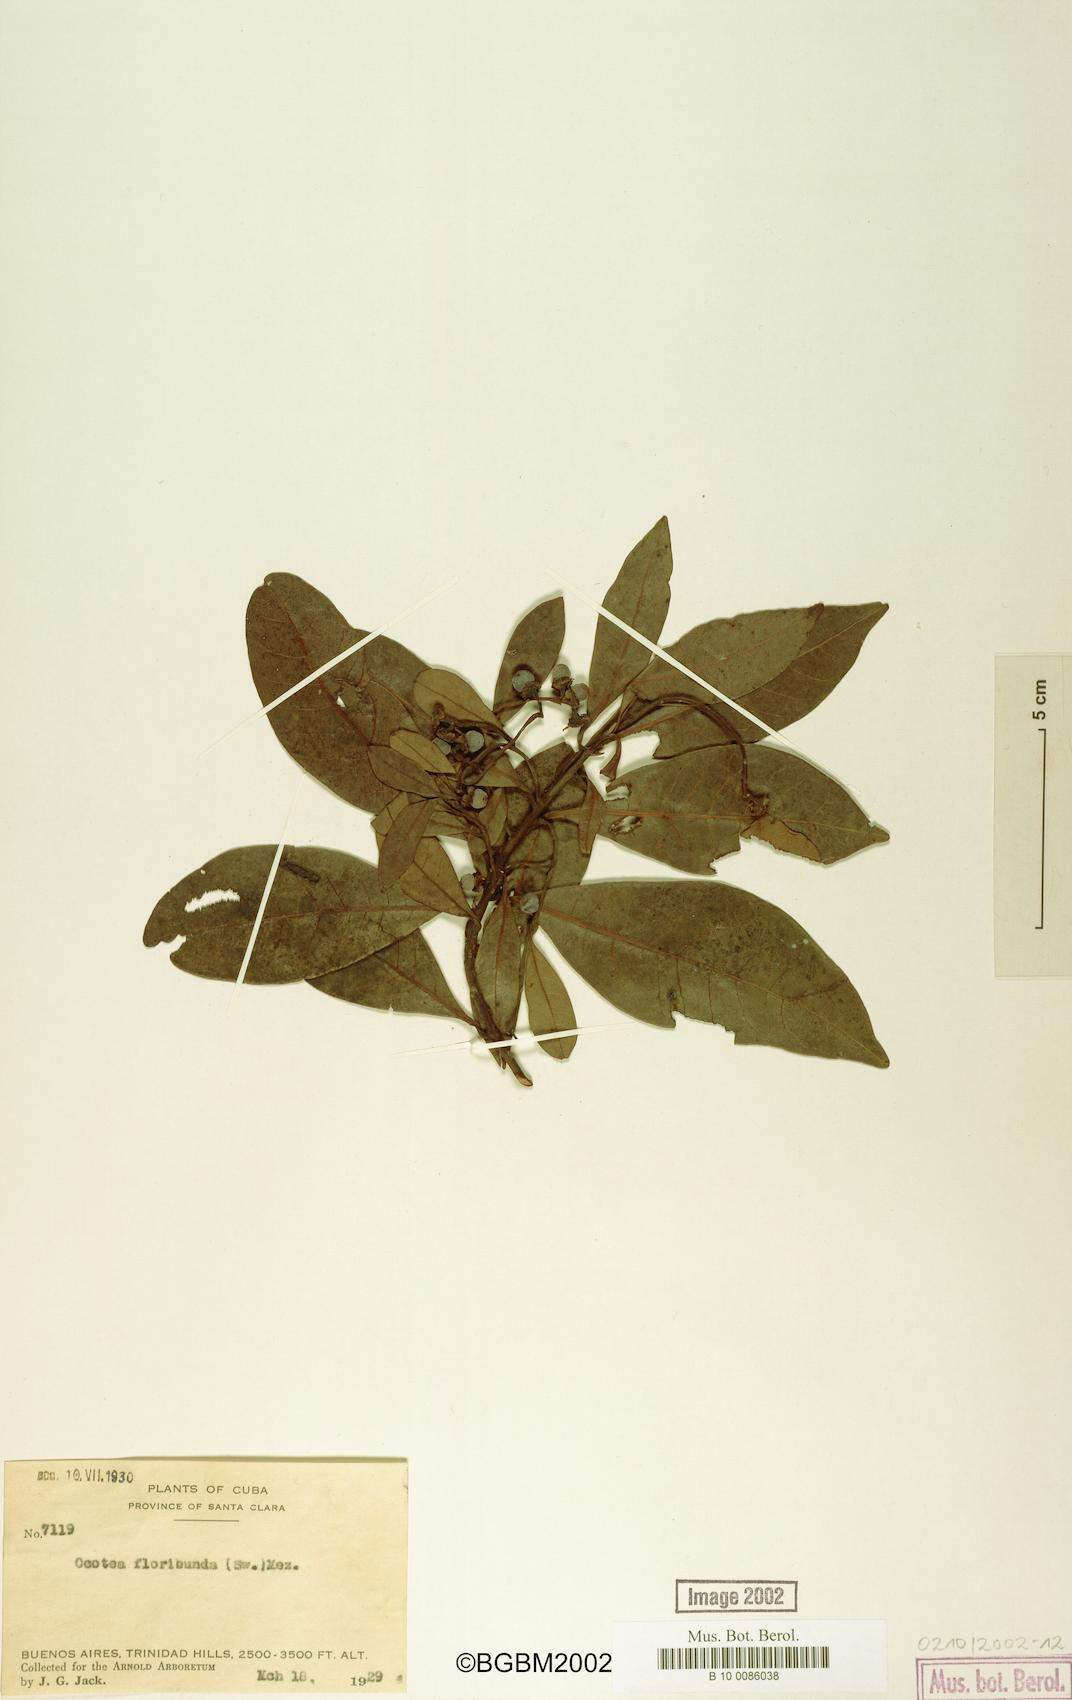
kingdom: Plantae
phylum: Tracheophyta
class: Magnoliopsida
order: Laurales
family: Lauraceae
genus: Ocotea
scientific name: Ocotea floribunda
